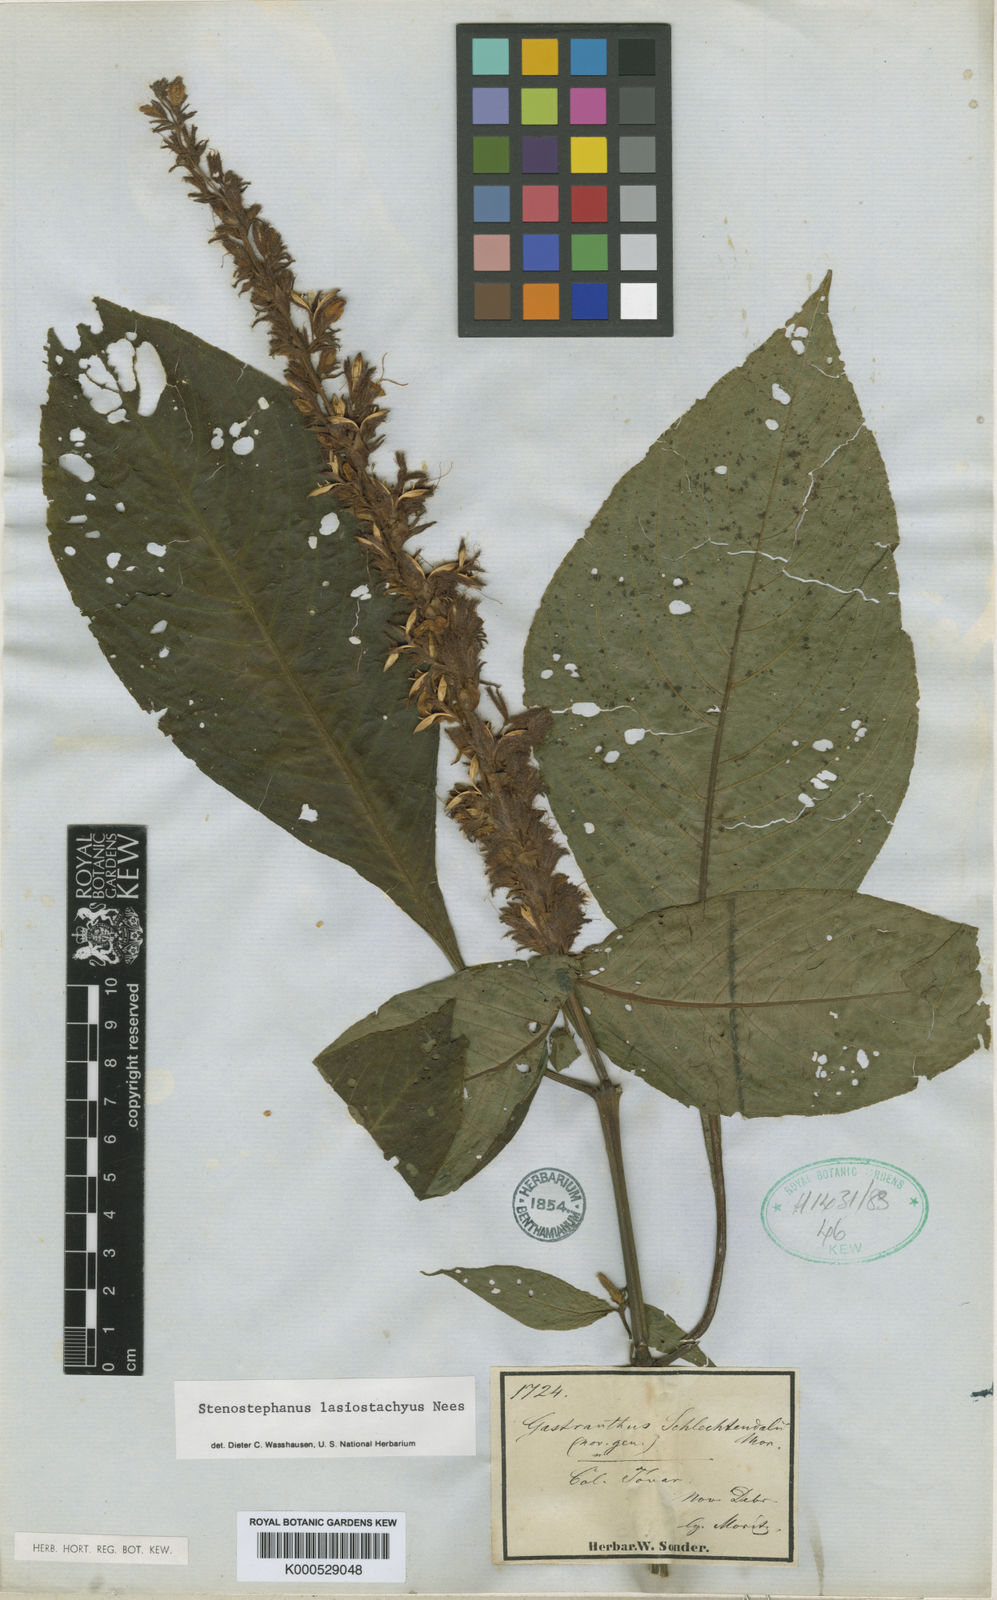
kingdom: Plantae
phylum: Tracheophyta
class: Magnoliopsida
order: Lamiales
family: Acanthaceae
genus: Stenostephanus
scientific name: Stenostephanus lasiostachyus
